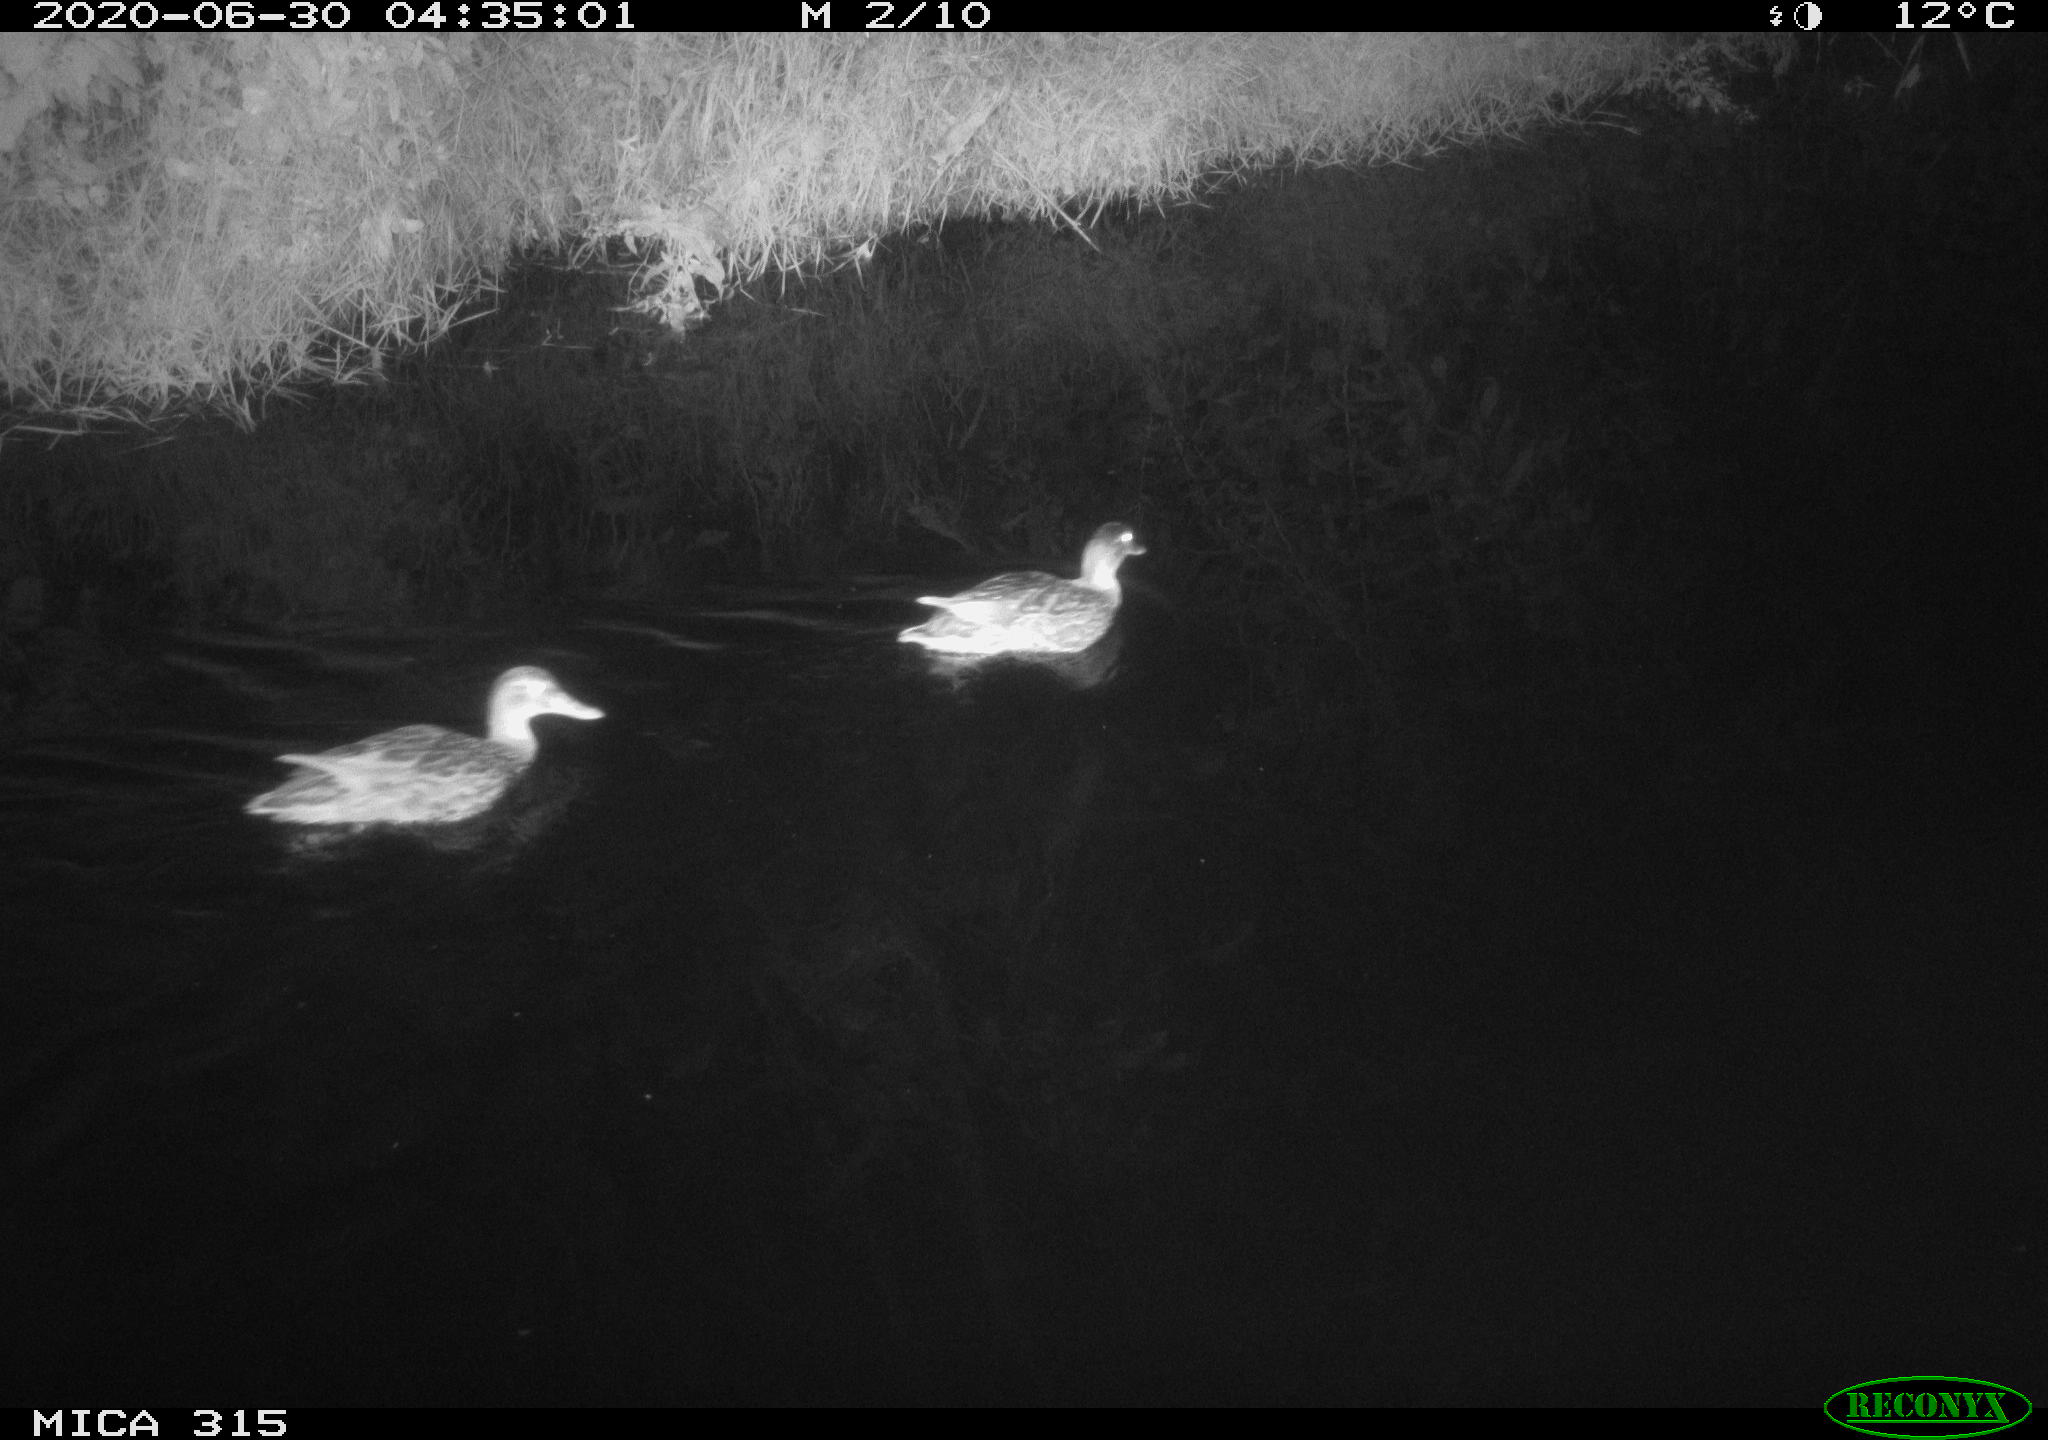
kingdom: Animalia
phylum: Chordata
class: Aves
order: Anseriformes
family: Anatidae
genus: Anas
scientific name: Anas platyrhynchos
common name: Mallard
